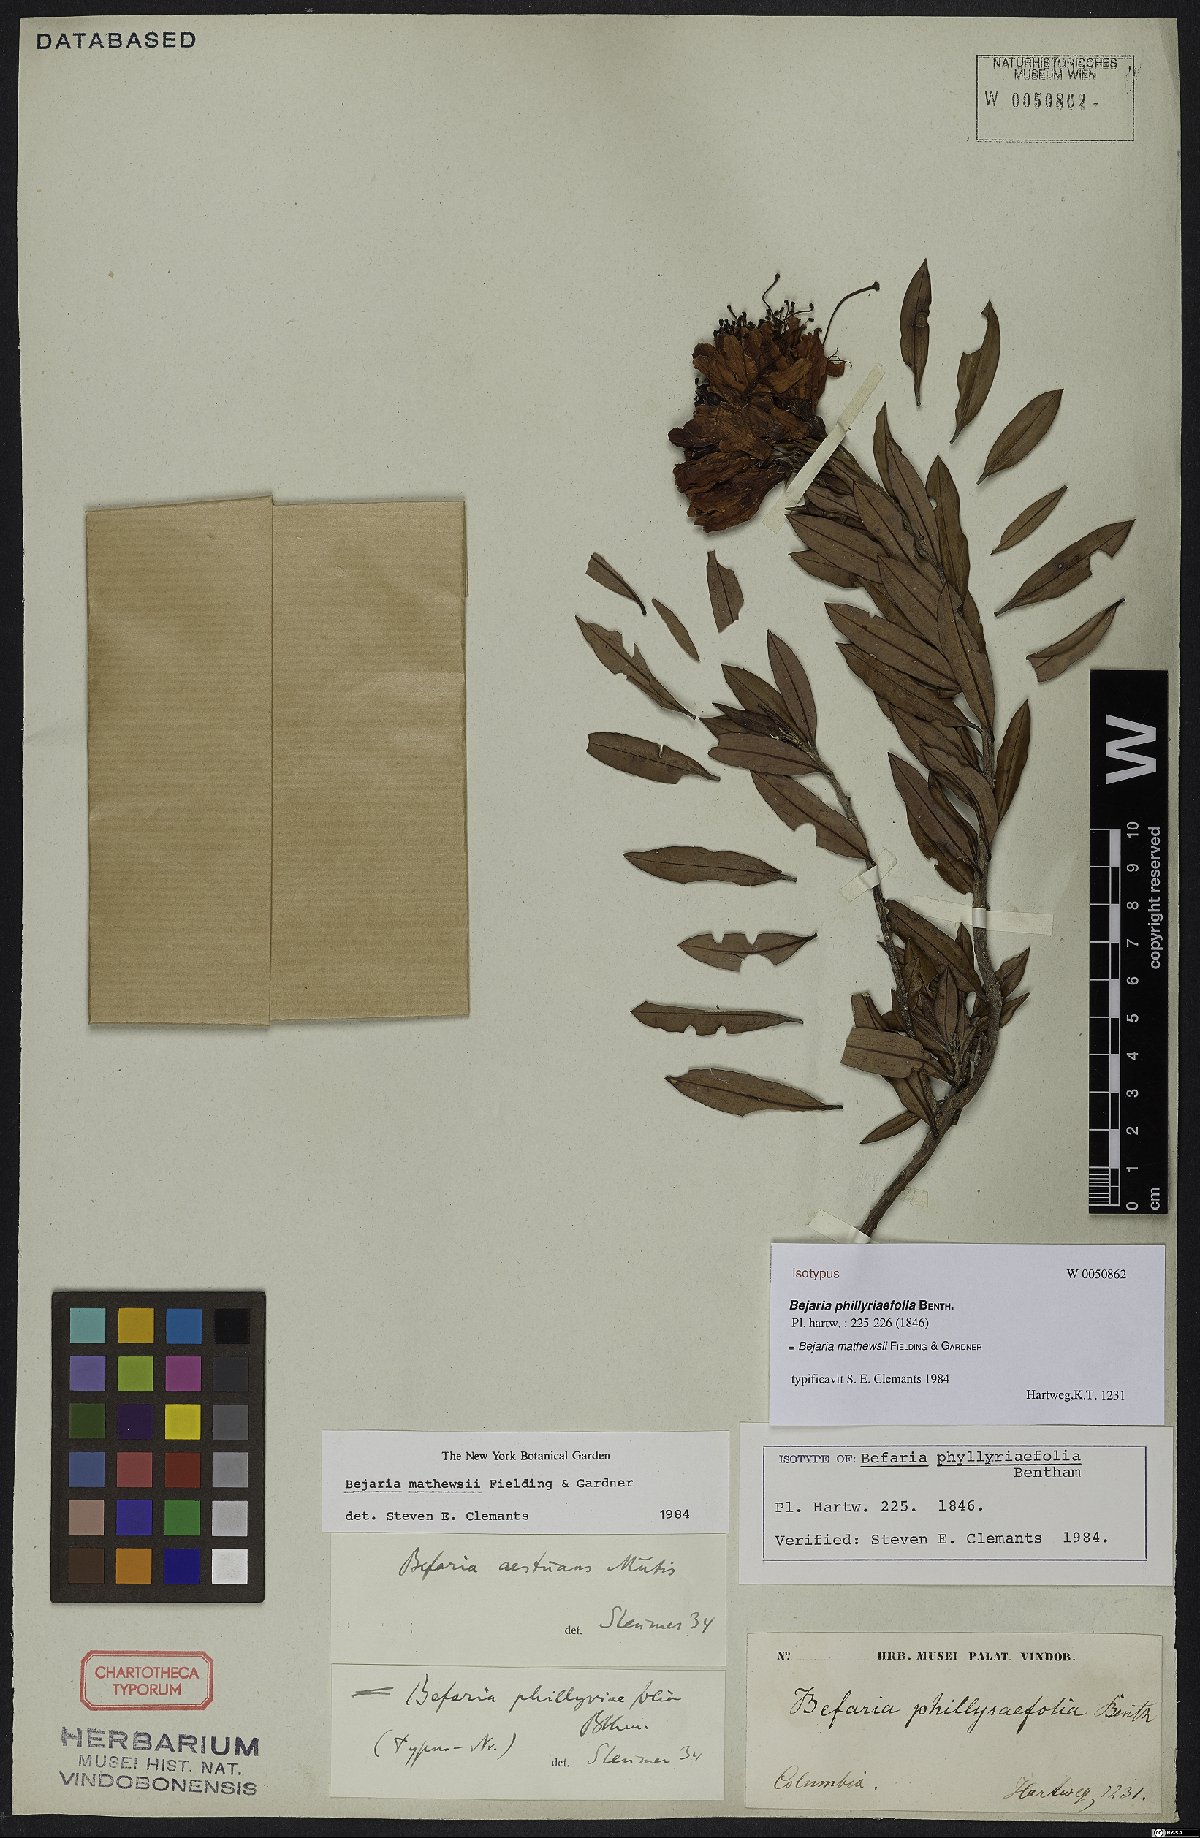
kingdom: Plantae
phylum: Tracheophyta
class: Magnoliopsida
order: Ericales
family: Ericaceae
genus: Bejaria
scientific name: Bejaria mathewsii
